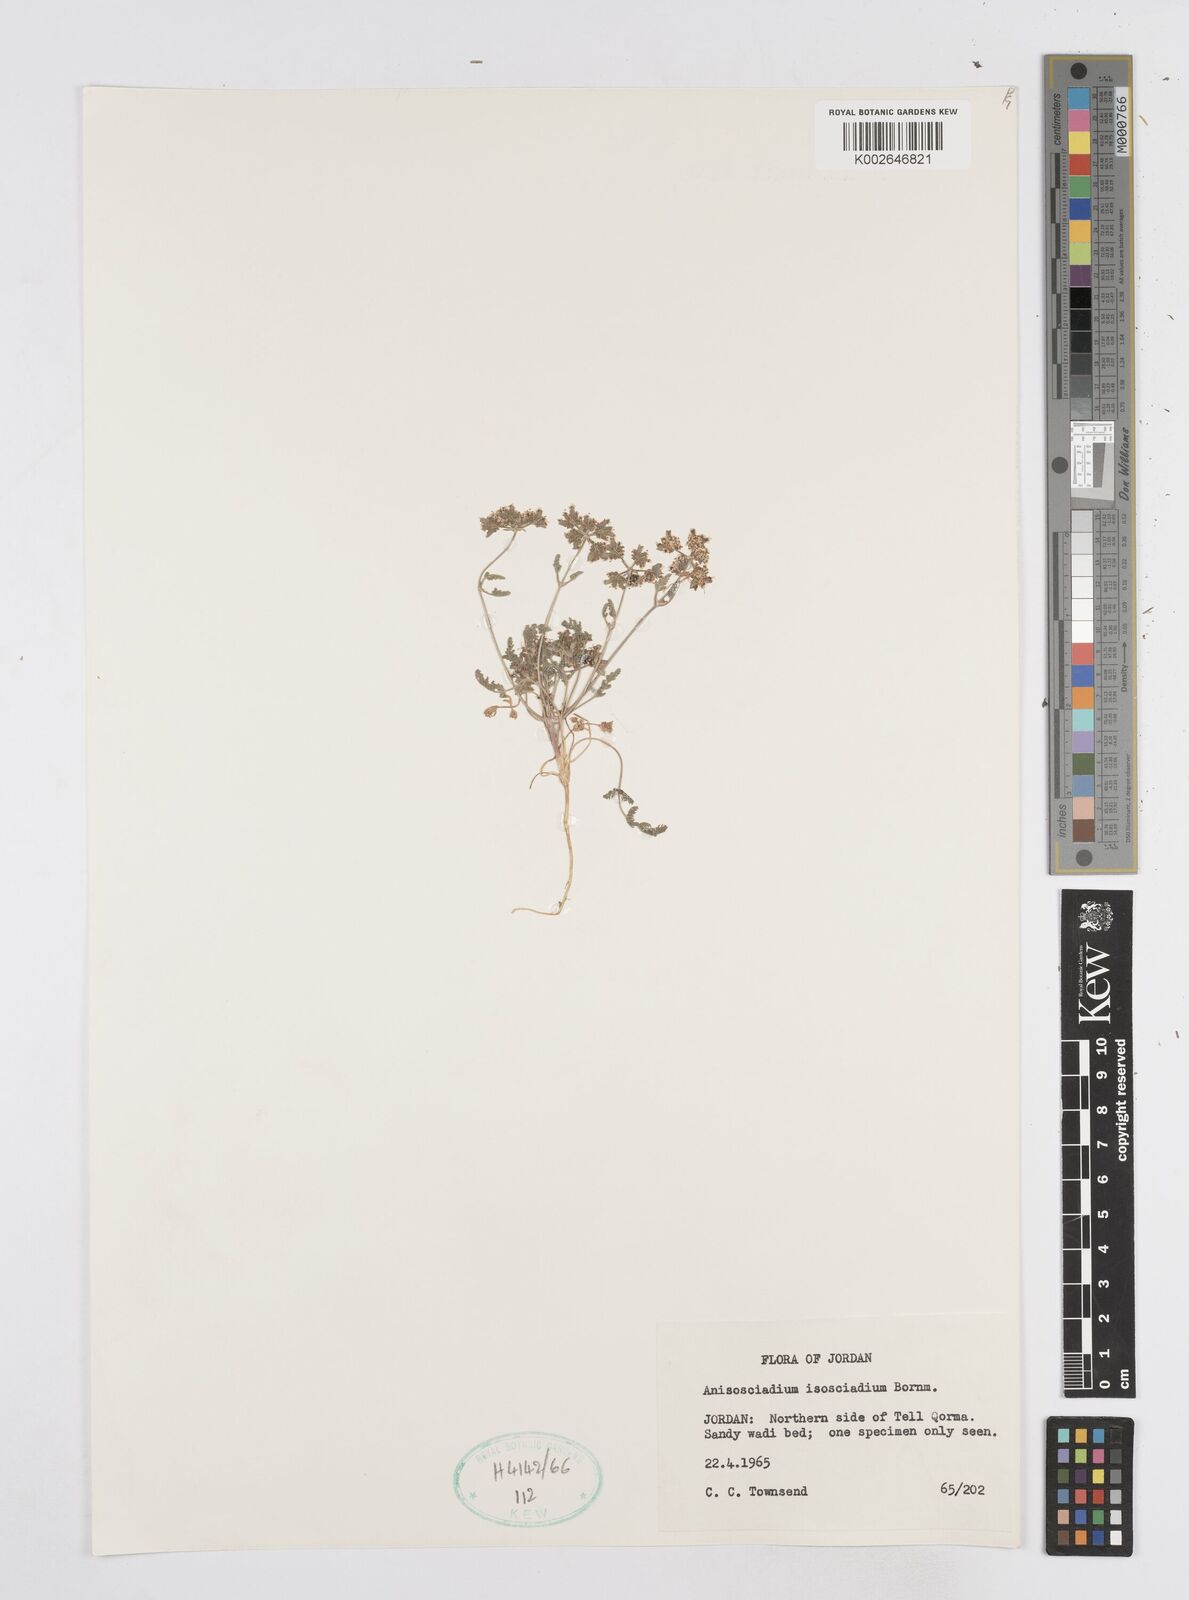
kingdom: Plantae
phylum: Tracheophyta
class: Magnoliopsida
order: Apiales
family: Apiaceae
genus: Anisosciadium
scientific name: Anisosciadium isosciadium
